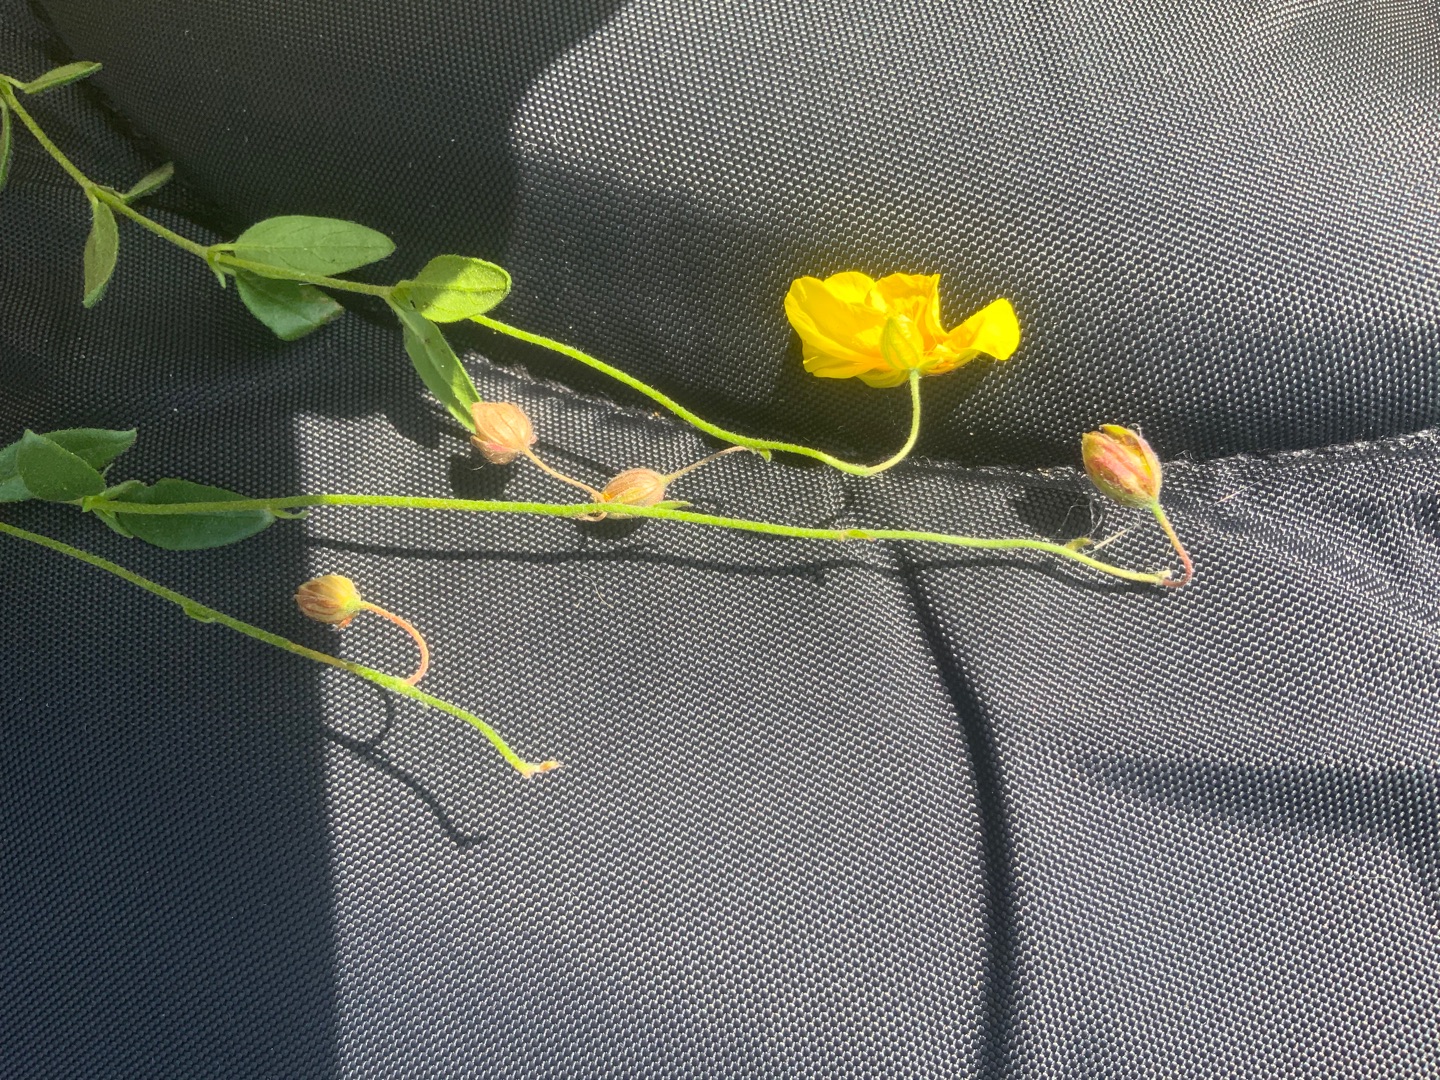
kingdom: Plantae
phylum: Tracheophyta
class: Magnoliopsida
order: Malvales
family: Cistaceae
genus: Helianthemum
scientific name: Helianthemum nummularium
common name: Soløje
